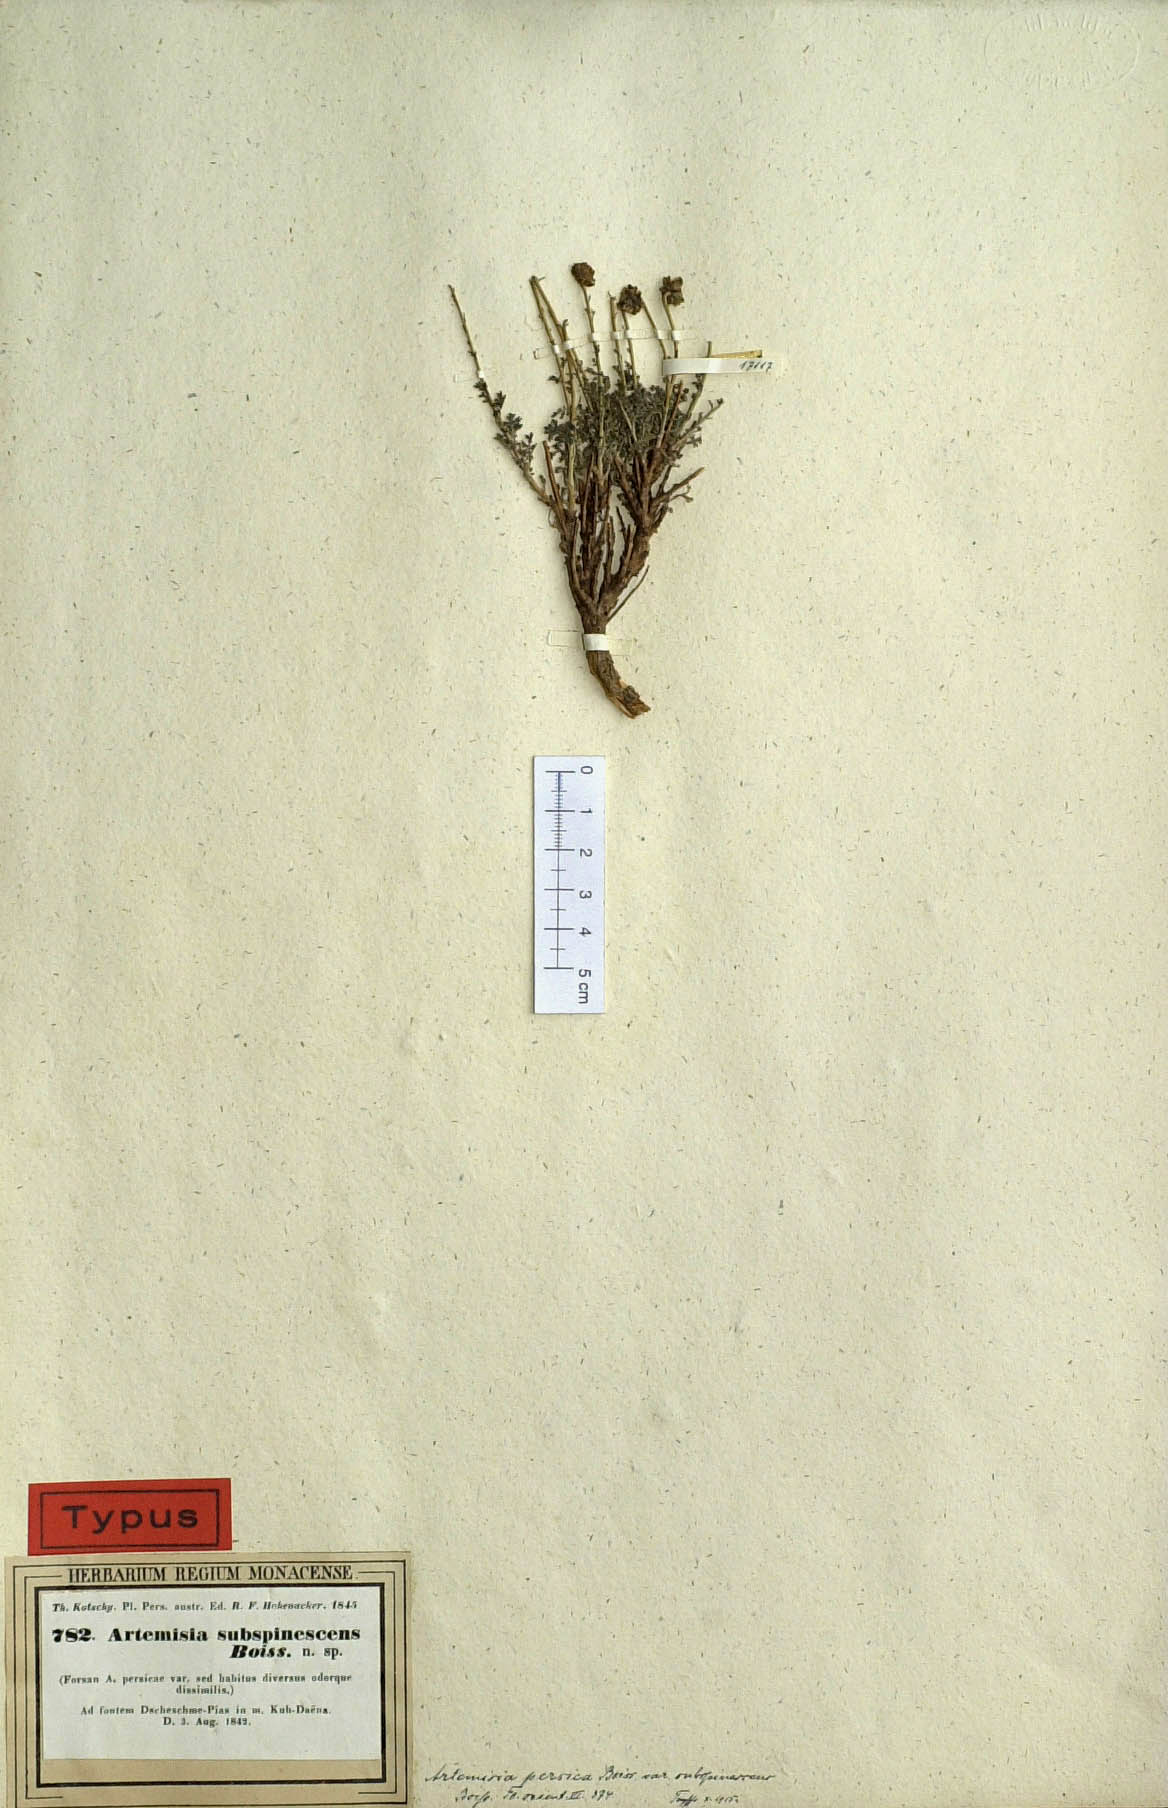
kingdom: Plantae
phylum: Tracheophyta
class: Magnoliopsida
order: Asterales
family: Asteraceae
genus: Artemisia
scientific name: Artemisia persica
